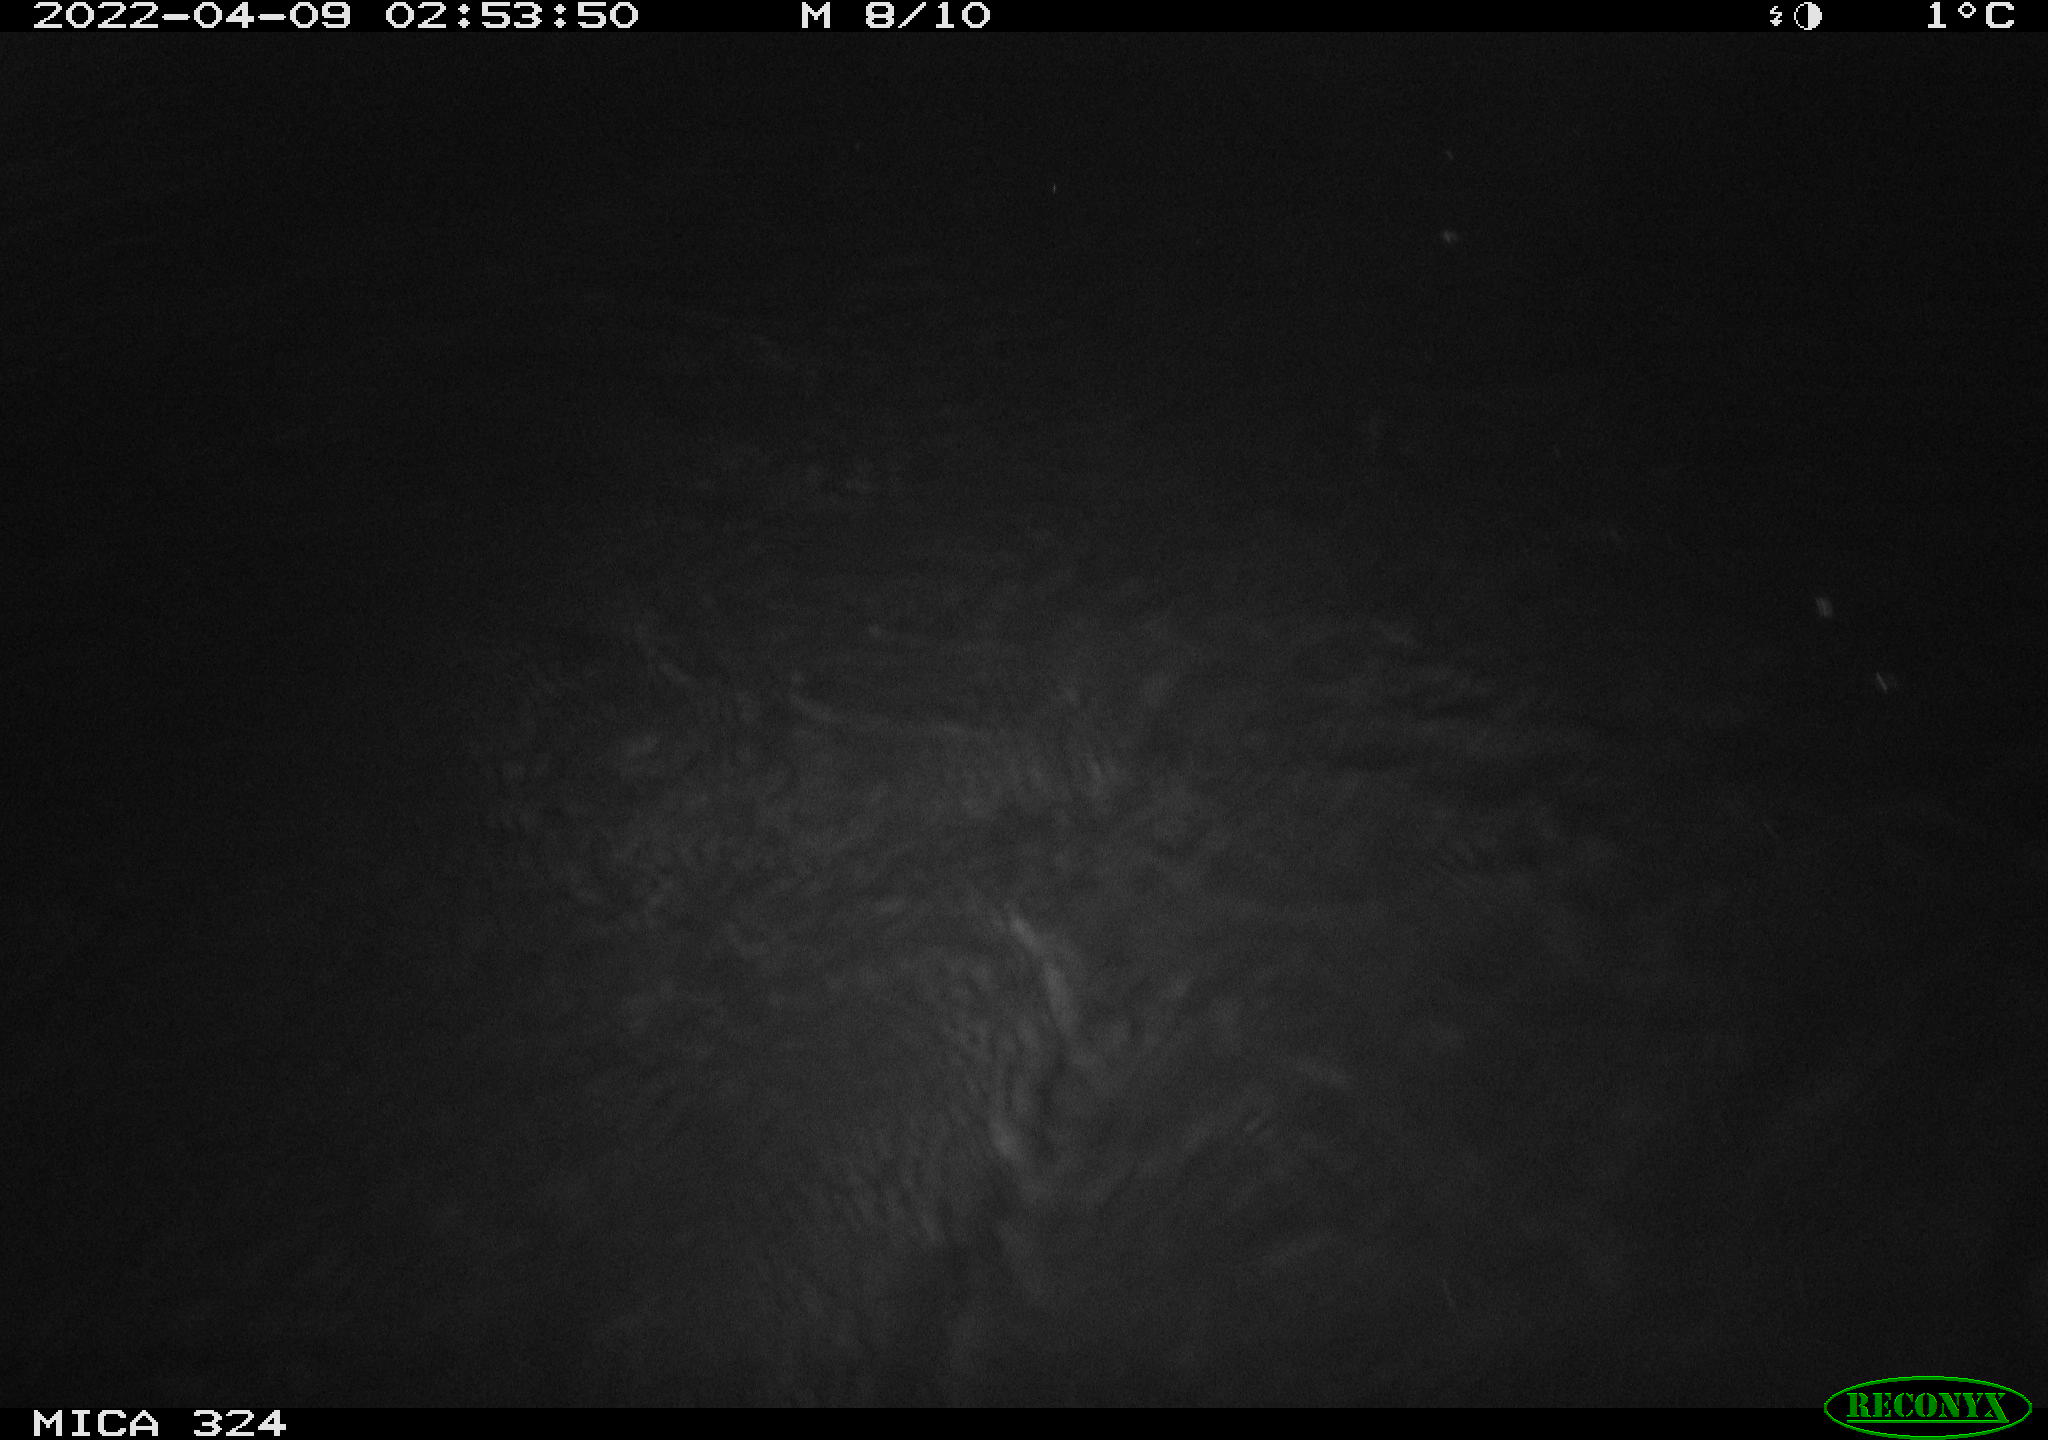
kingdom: Animalia
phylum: Chordata
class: Mammalia
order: Rodentia
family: Cricetidae
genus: Ondatra
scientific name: Ondatra zibethicus
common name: Muskrat
